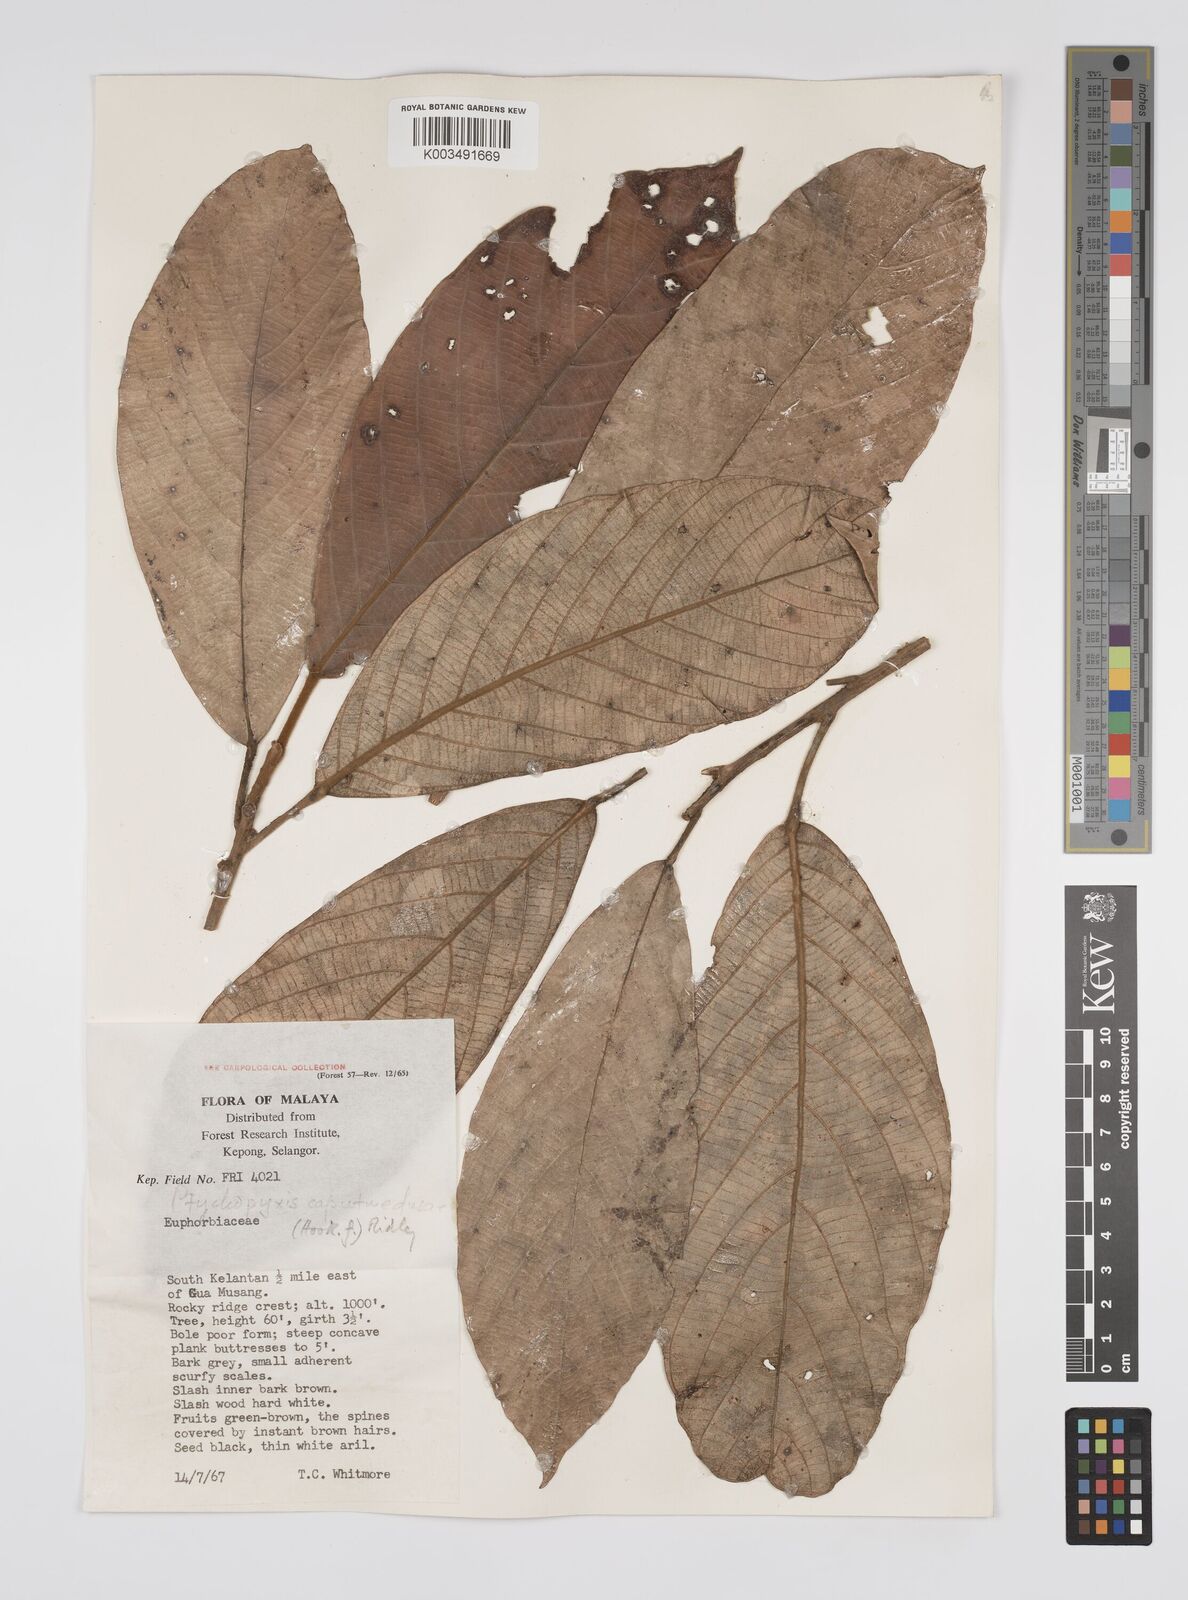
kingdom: Plantae
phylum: Tracheophyta
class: Magnoliopsida
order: Malpighiales
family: Euphorbiaceae
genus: Ptychopyxis
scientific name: Ptychopyxis caput-medusae
